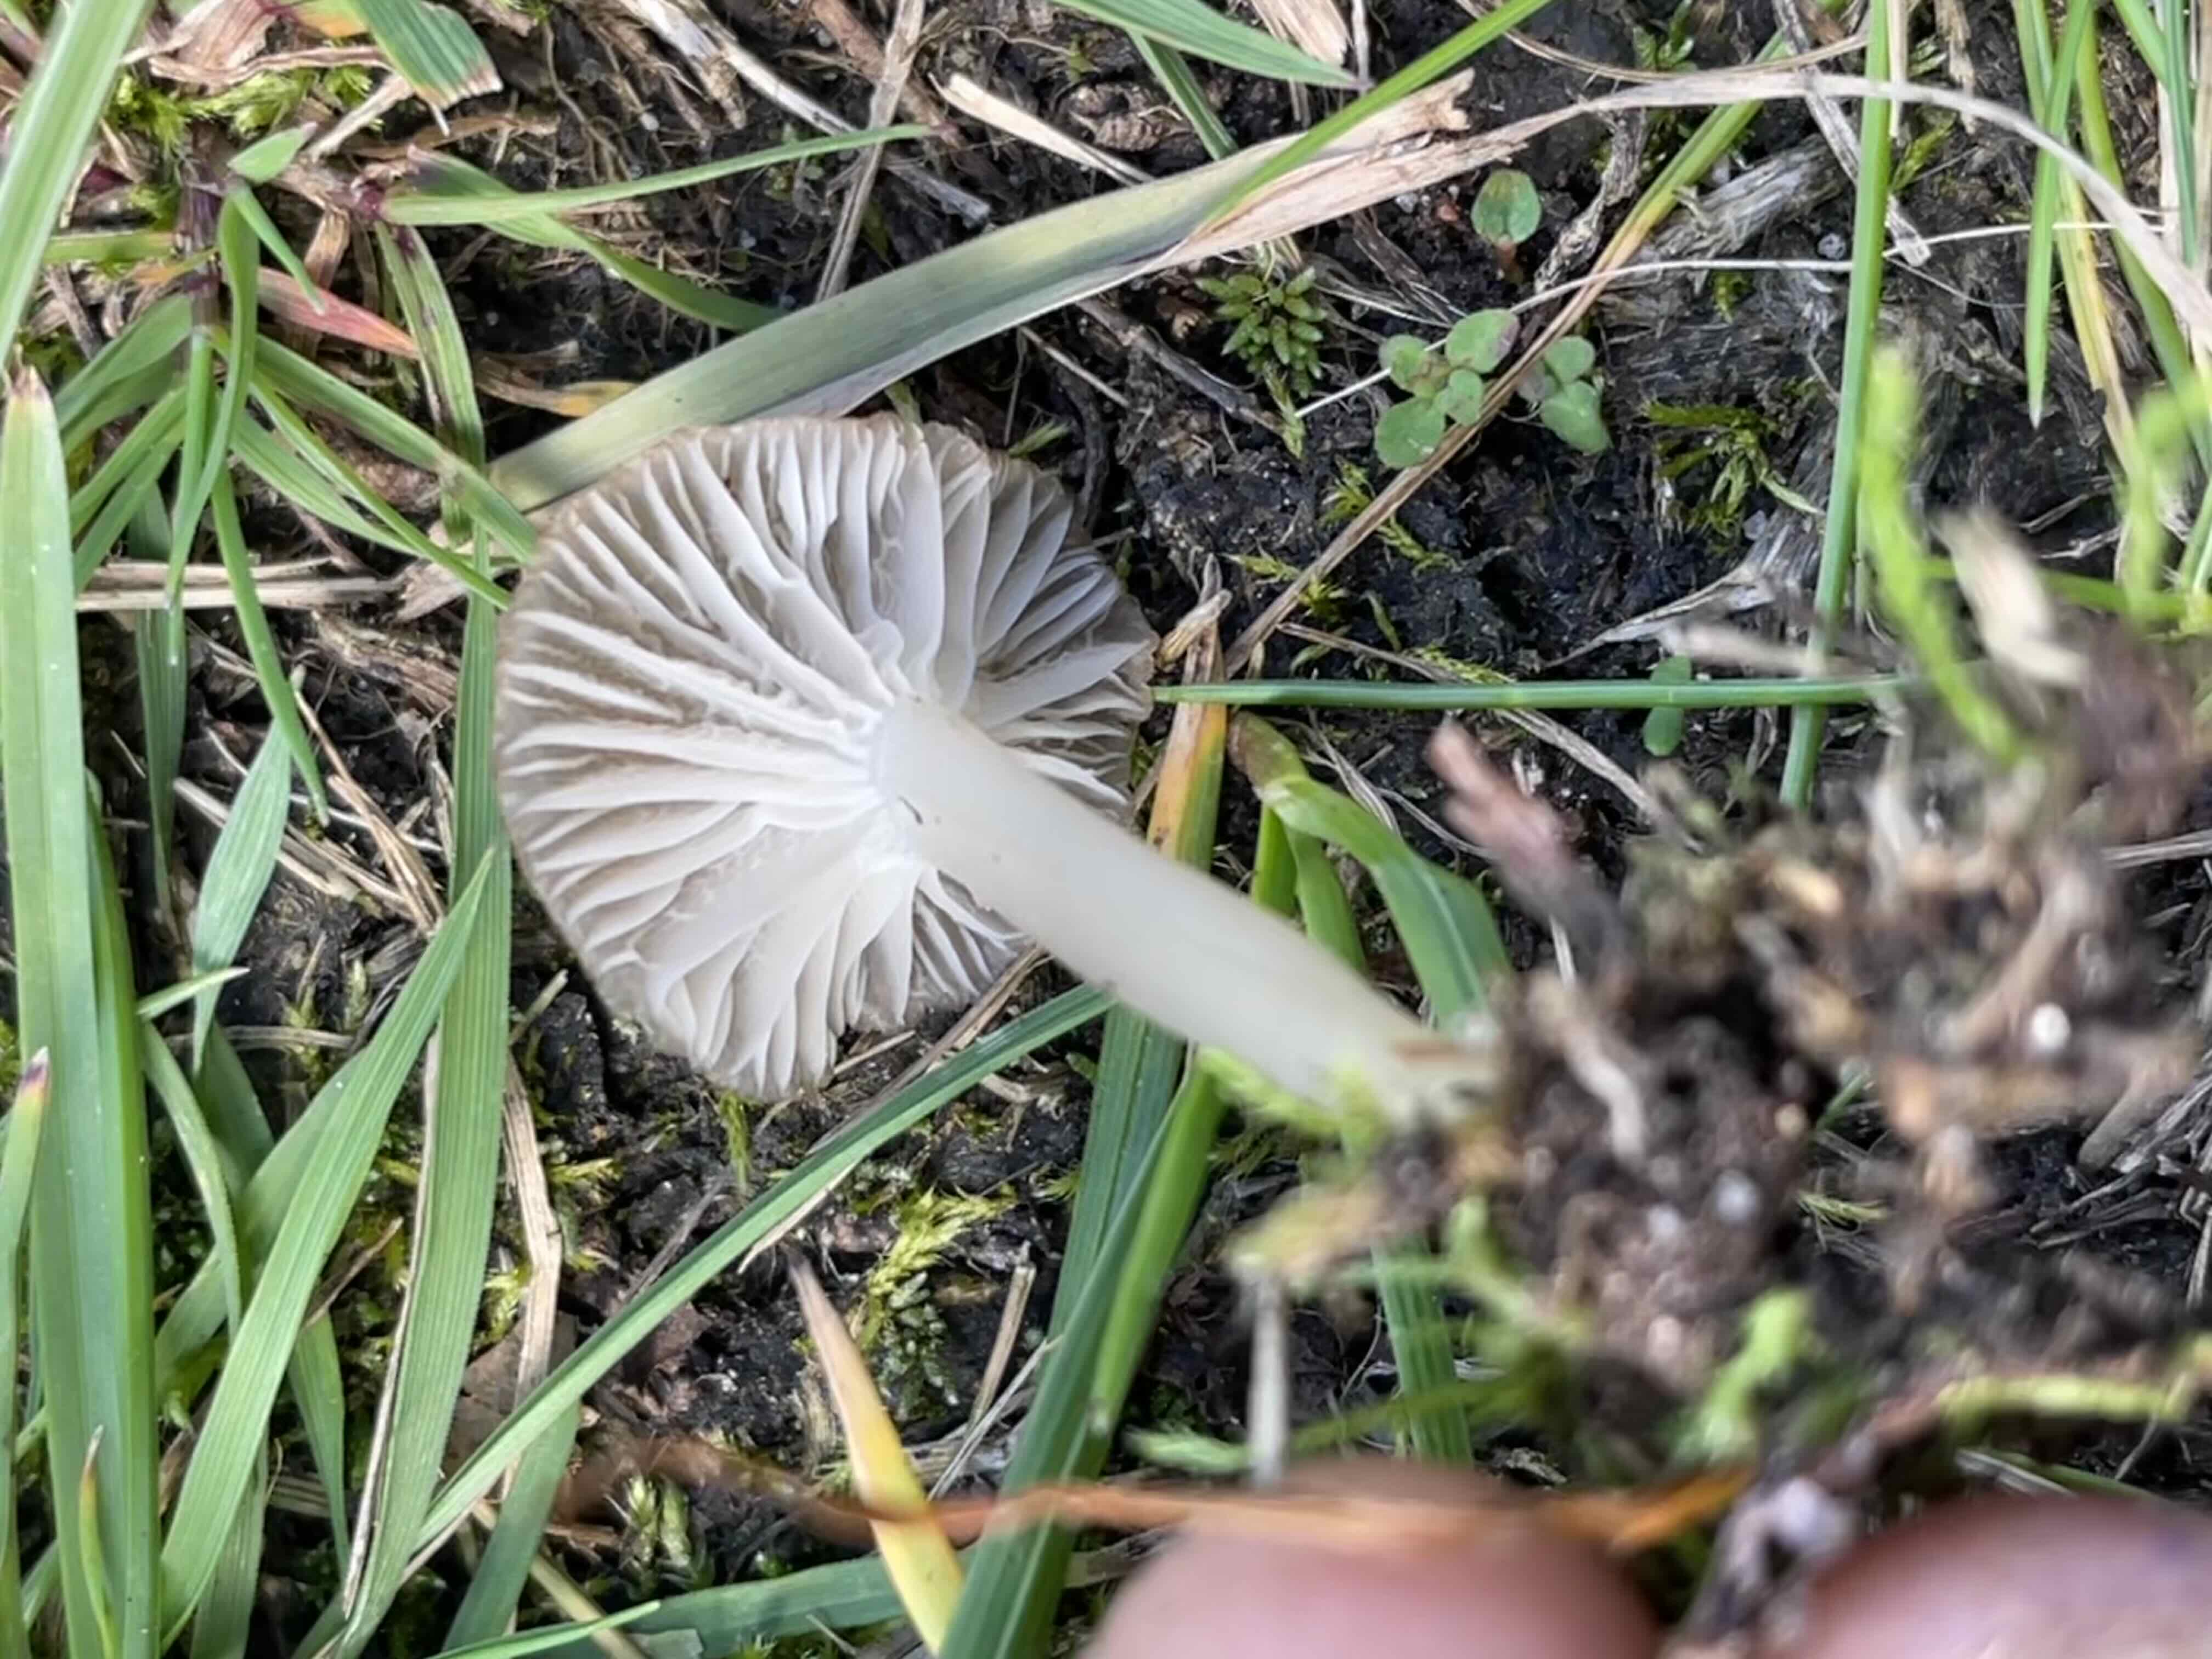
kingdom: Fungi
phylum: Basidiomycota
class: Agaricomycetes
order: Agaricales
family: Hygrophoraceae
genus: Cuphophyllus
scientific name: Cuphophyllus
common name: vokshat
